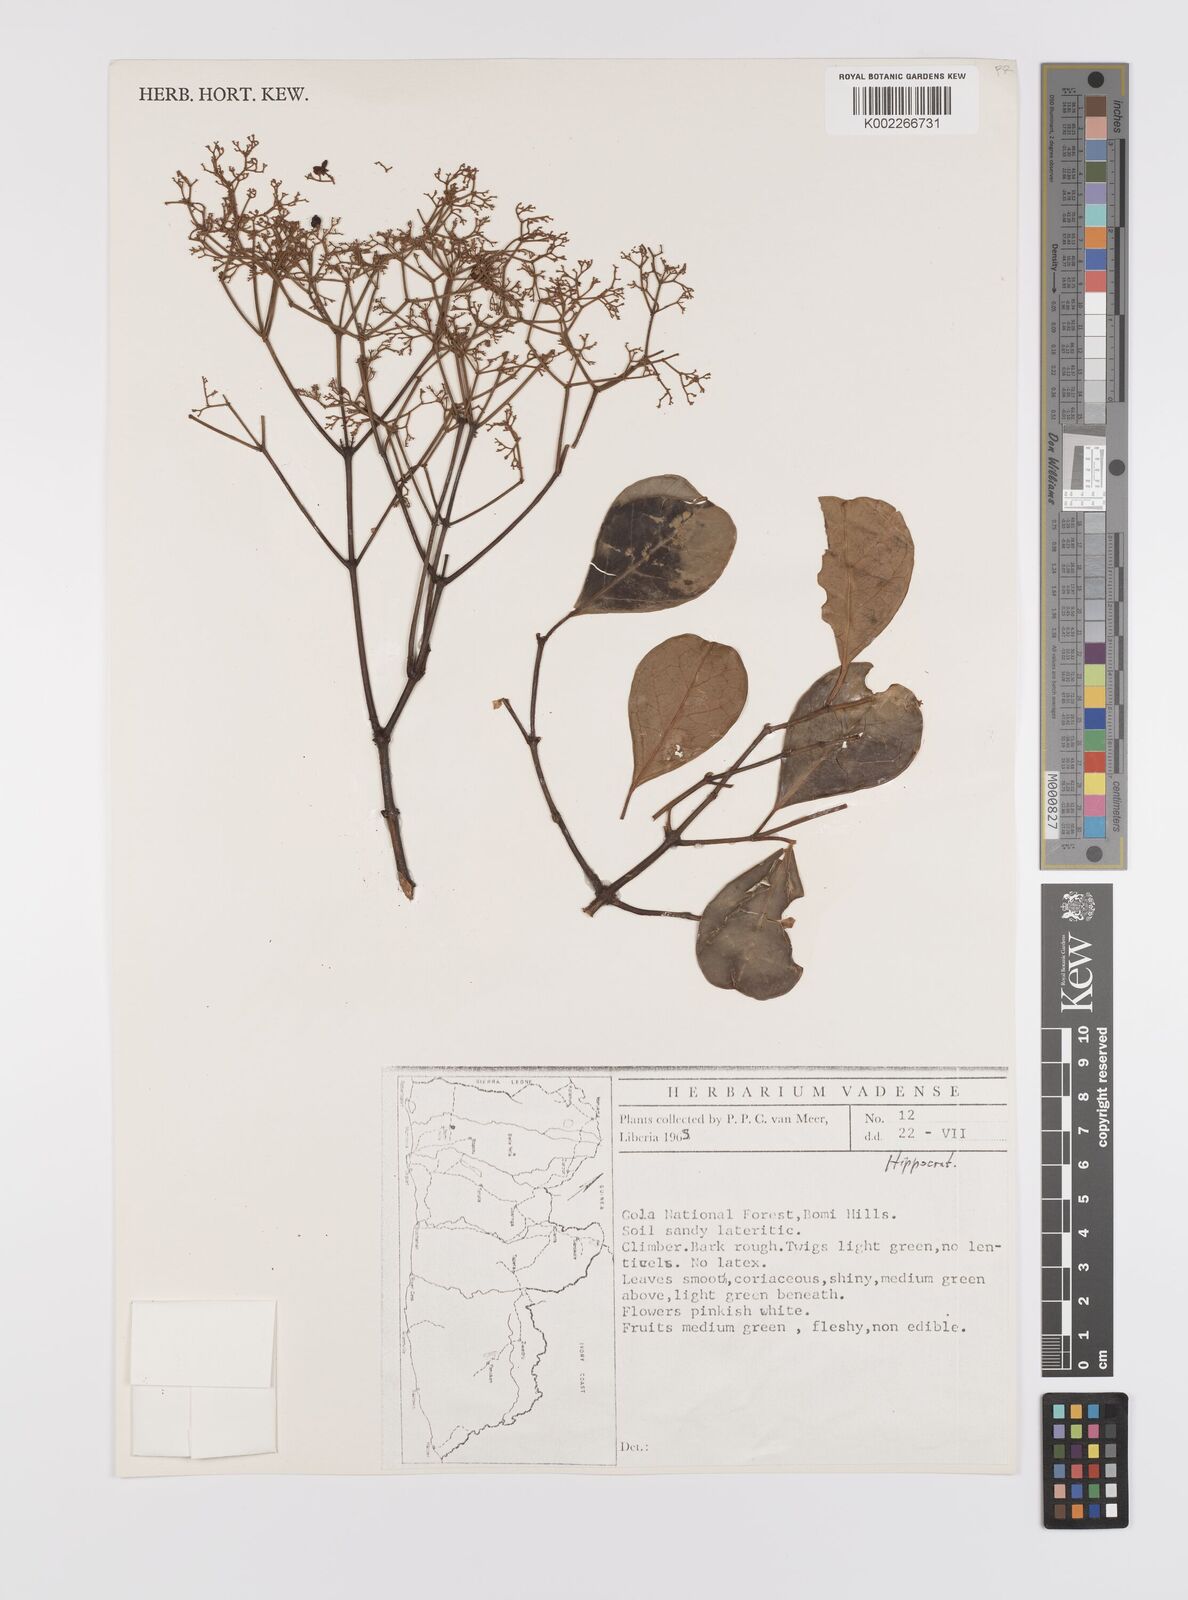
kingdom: Plantae
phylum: Tracheophyta
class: Magnoliopsida
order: Celastrales
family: Celastraceae
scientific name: Celastraceae
